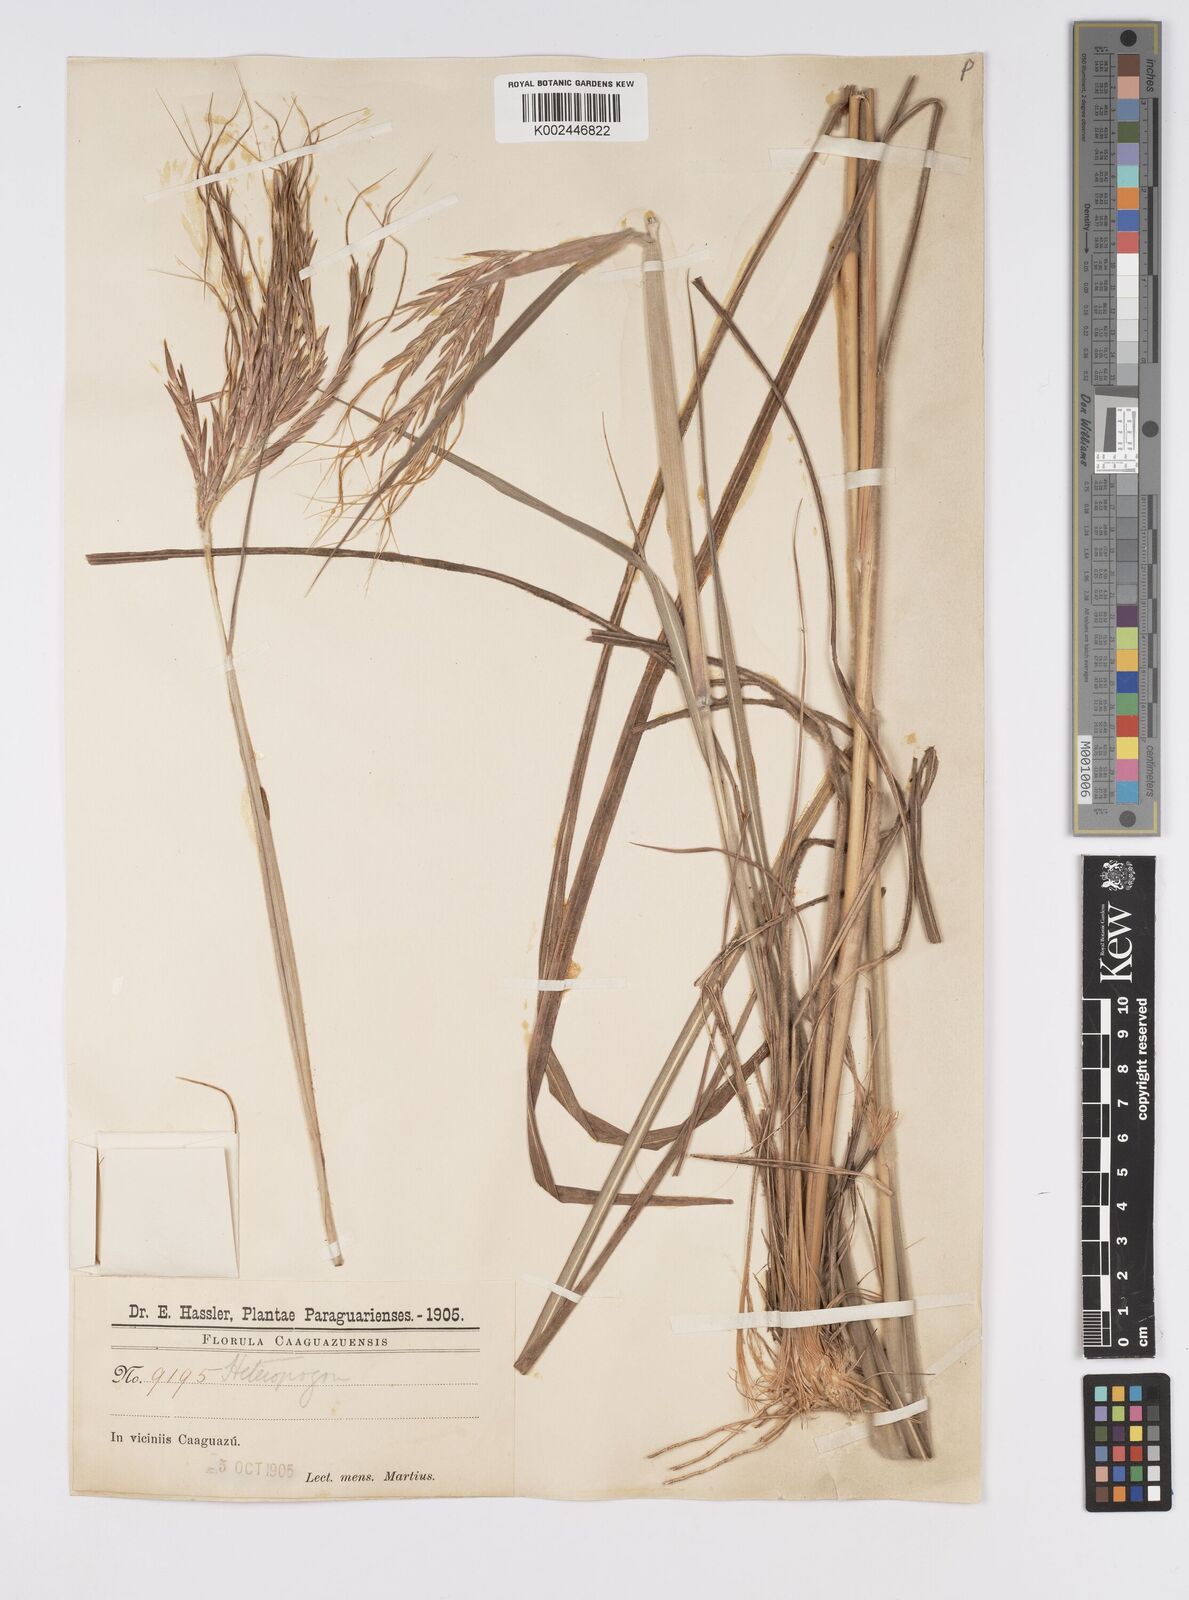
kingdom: Plantae
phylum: Tracheophyta
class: Liliopsida
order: Poales
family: Poaceae
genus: Agenium
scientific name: Agenium majus
